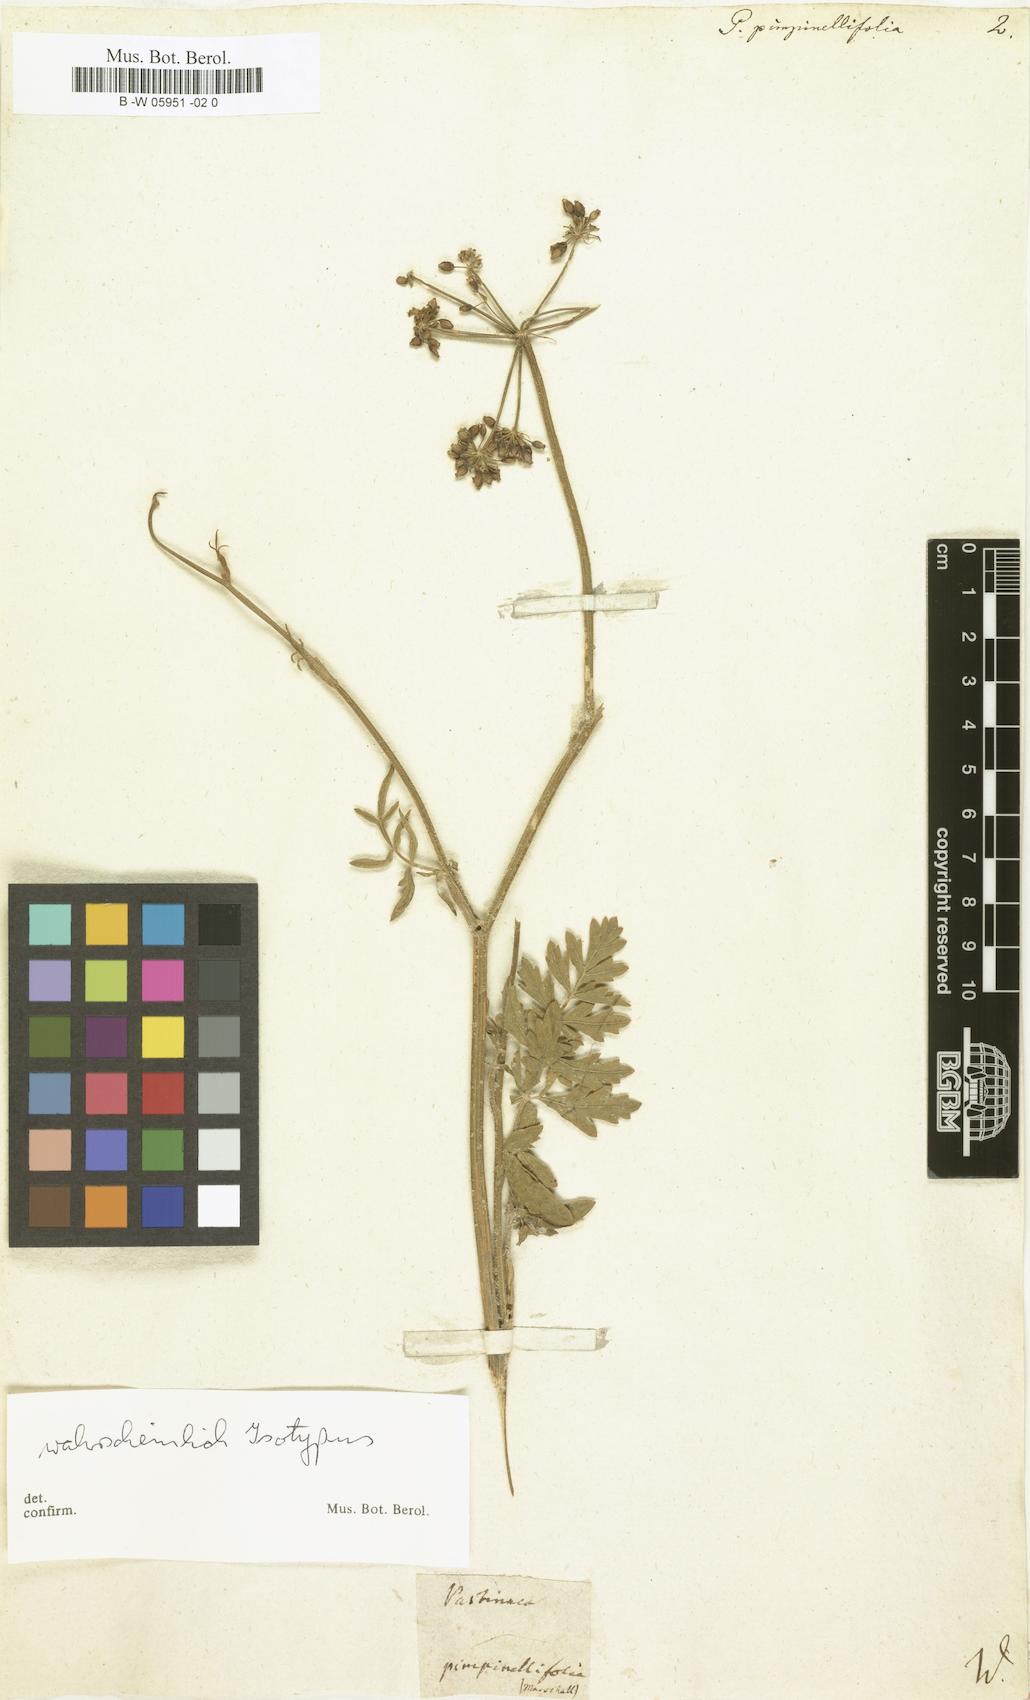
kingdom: Plantae
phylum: Tracheophyta
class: Magnoliopsida
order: Apiales
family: Apiaceae
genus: Pastinaca
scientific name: Pastinaca pimpinellifolia
